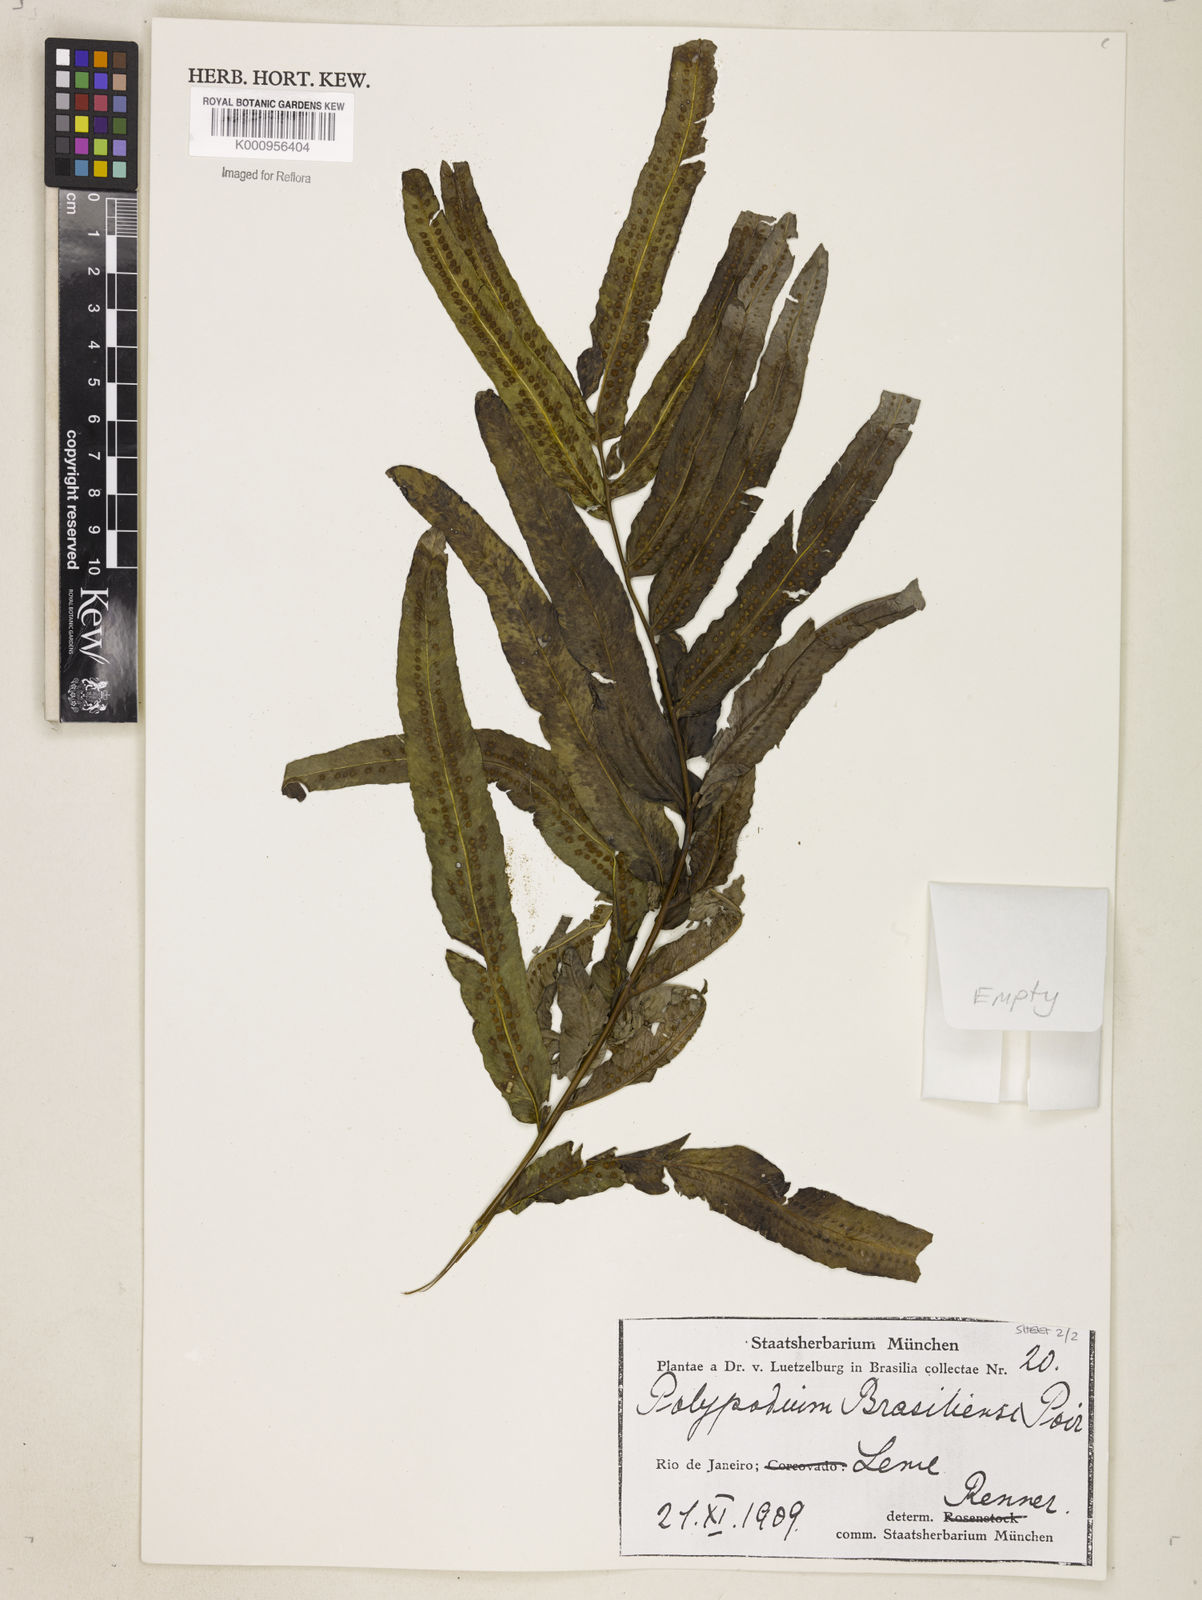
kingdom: Plantae
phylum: Tracheophyta
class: Polypodiopsida
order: Polypodiales
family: Polypodiaceae
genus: Serpocaulon
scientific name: Serpocaulon triseriale
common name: Angle-vein fern
